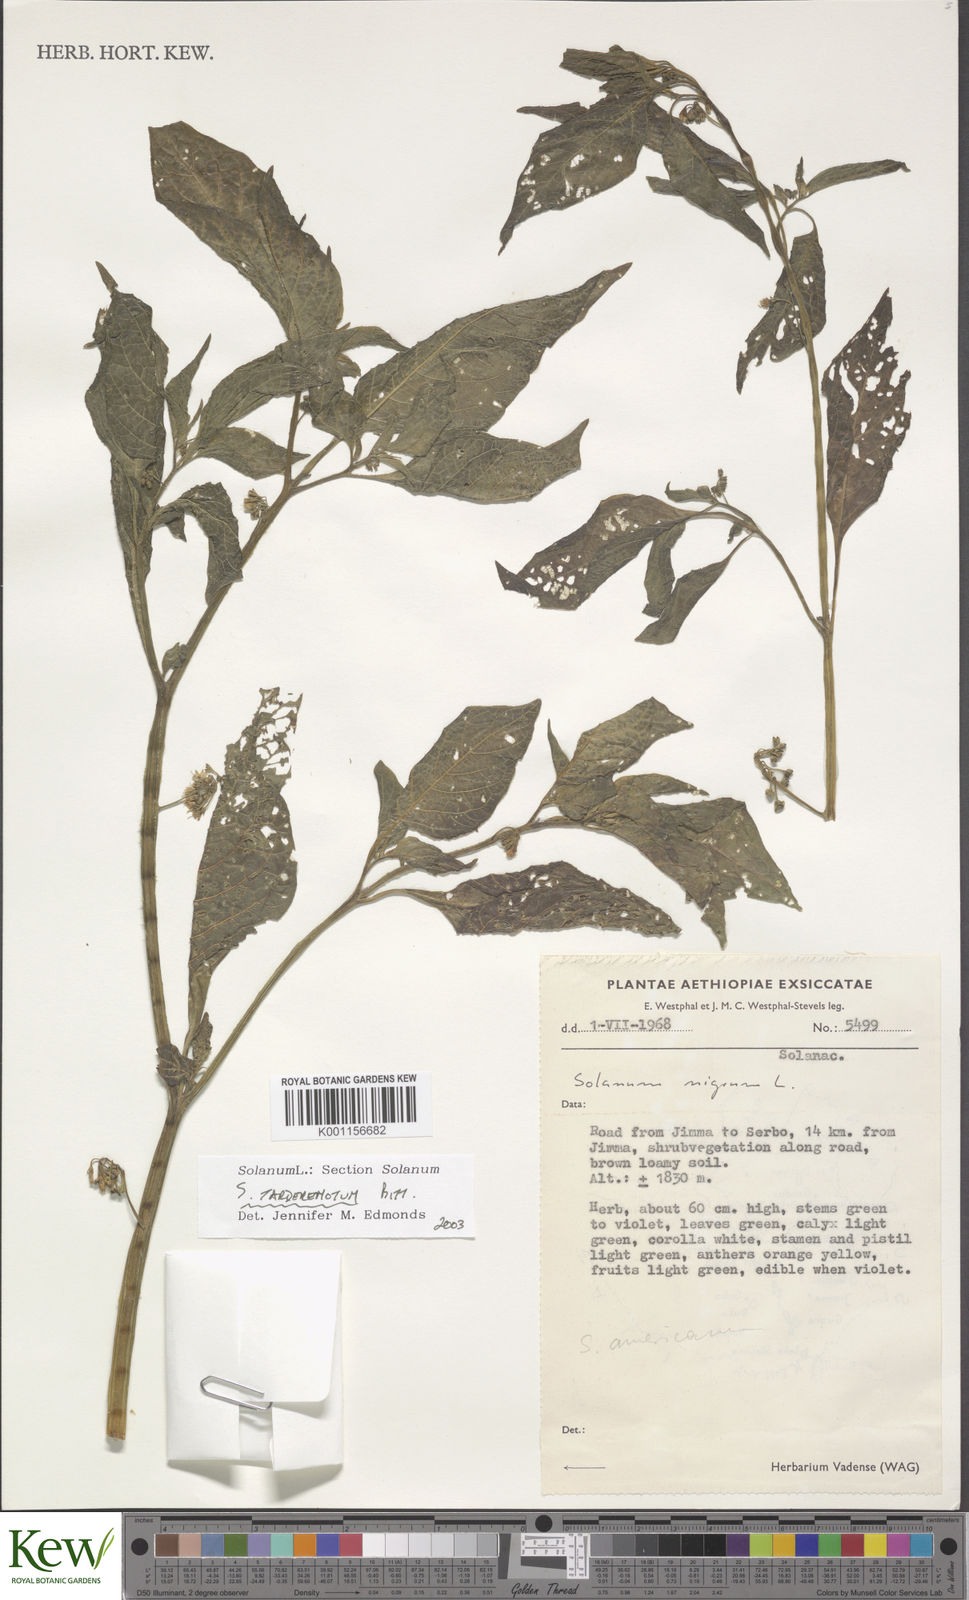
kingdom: Plantae
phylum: Tracheophyta
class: Magnoliopsida
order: Solanales
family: Solanaceae
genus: Solanum
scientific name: Solanum tarderemotum
